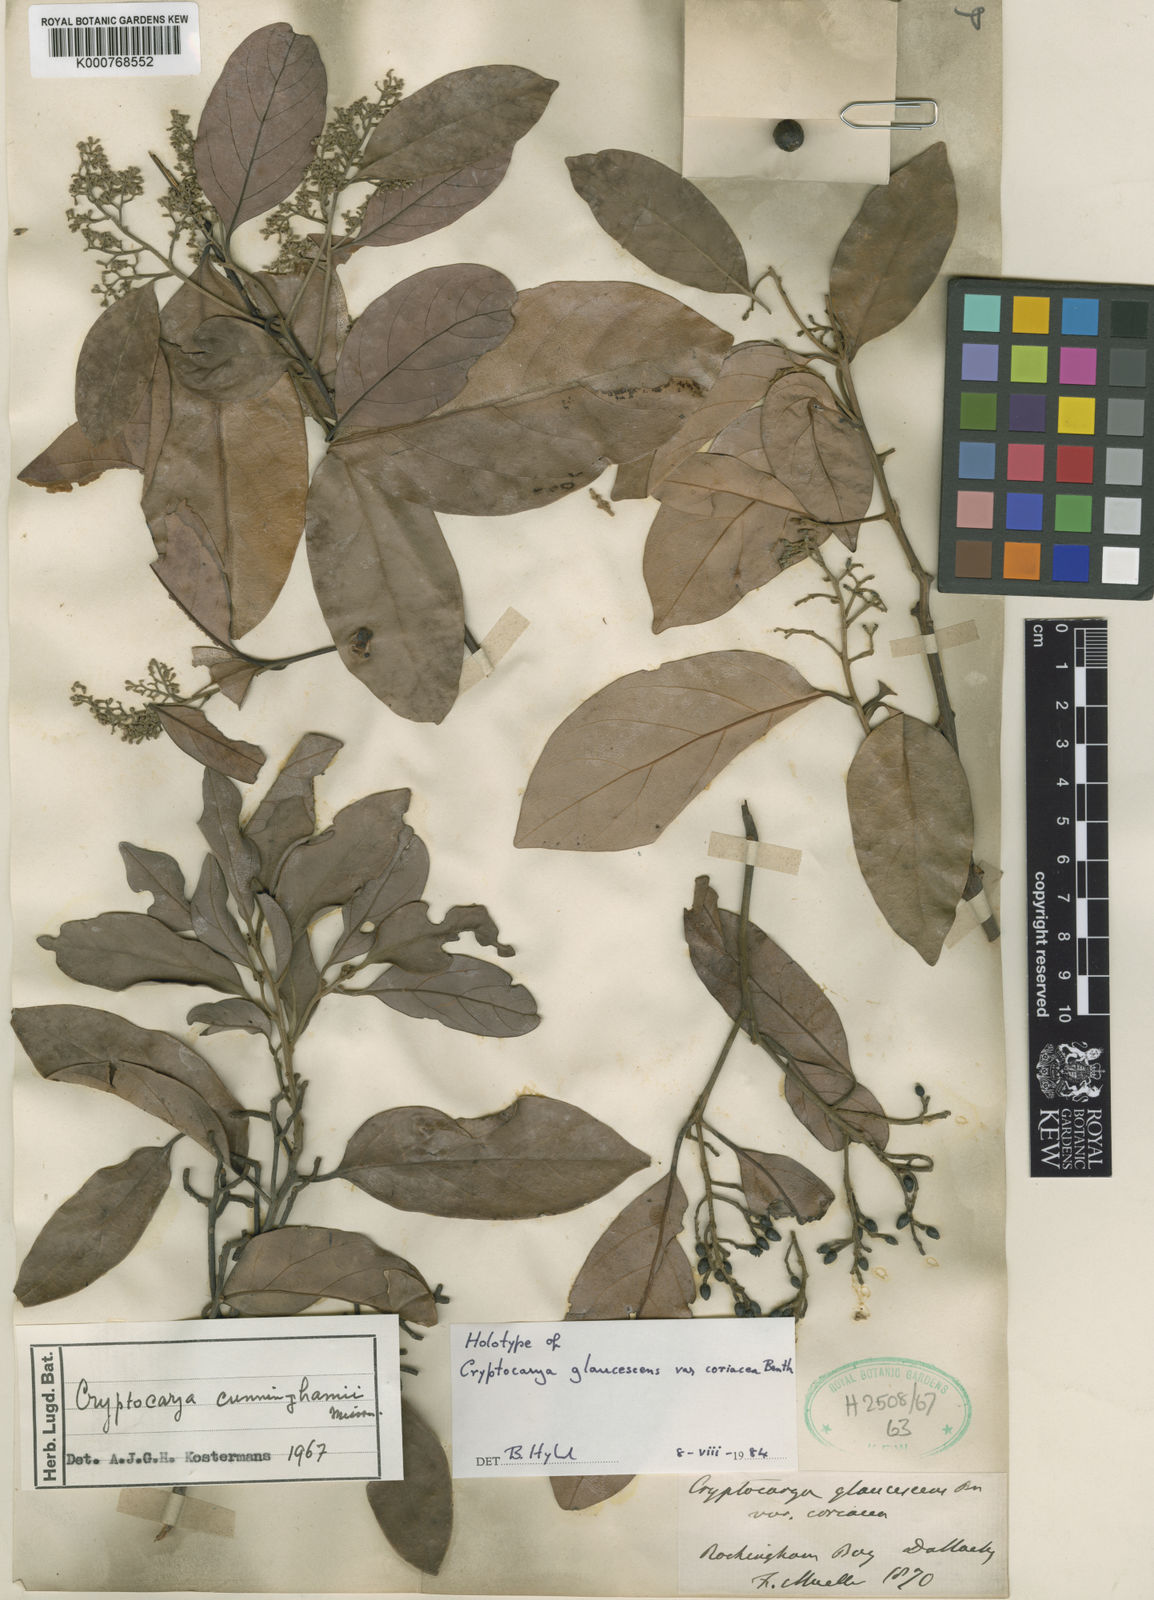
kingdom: Plantae
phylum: Tracheophyta
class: Magnoliopsida
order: Laurales
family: Lauraceae
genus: Cryptocarya
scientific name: Cryptocarya cunninghamii
